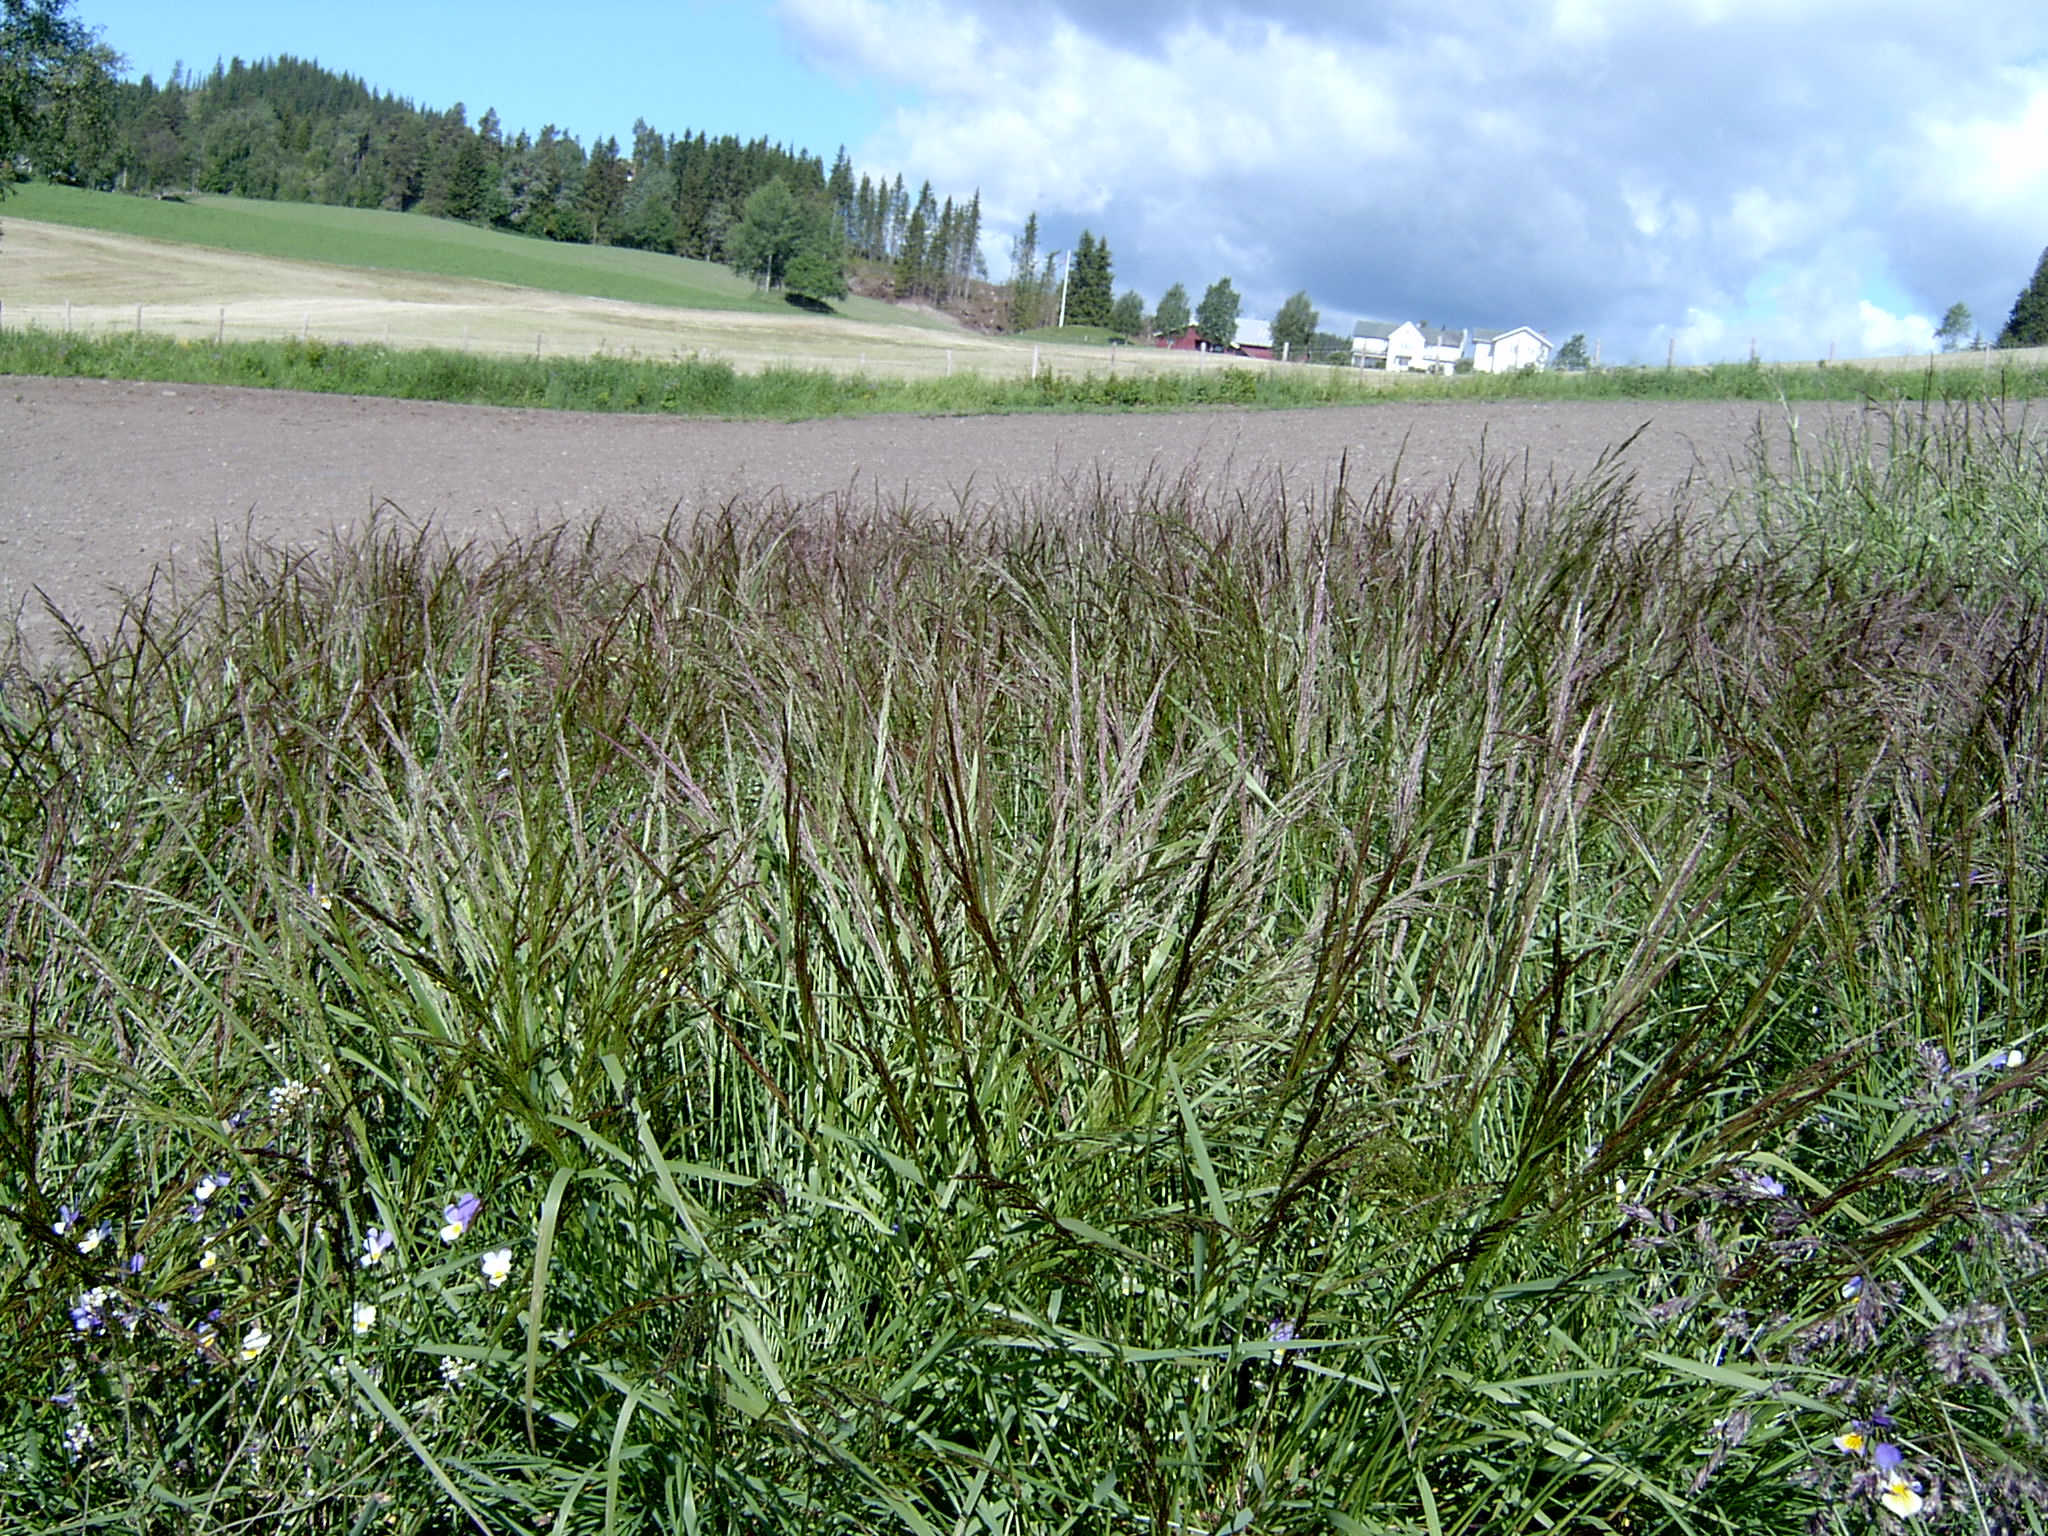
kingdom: Plantae
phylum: Tracheophyta
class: Liliopsida
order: Poales
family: Poaceae
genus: Agrostis
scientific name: Agrostis capillaris
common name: Colonial bentgrass
